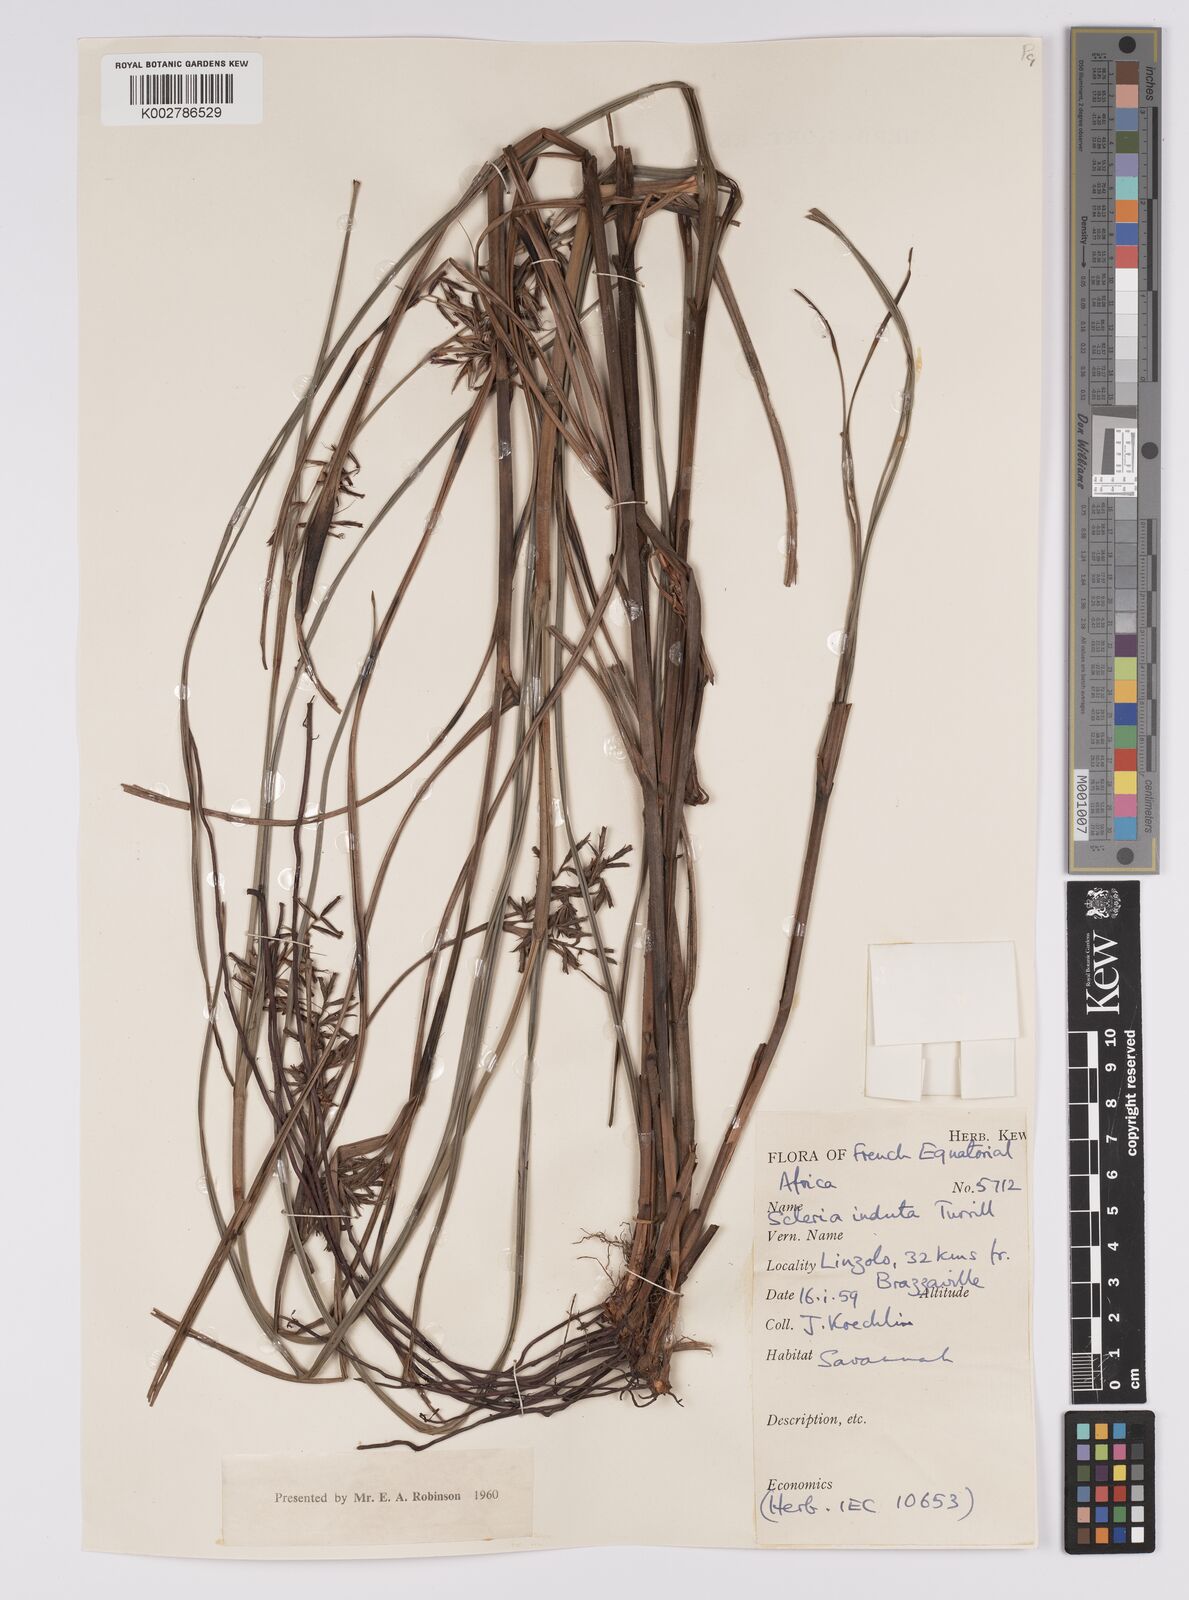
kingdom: Plantae
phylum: Tracheophyta
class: Liliopsida
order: Poales
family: Cyperaceae
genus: Scleria
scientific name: Scleria induta
